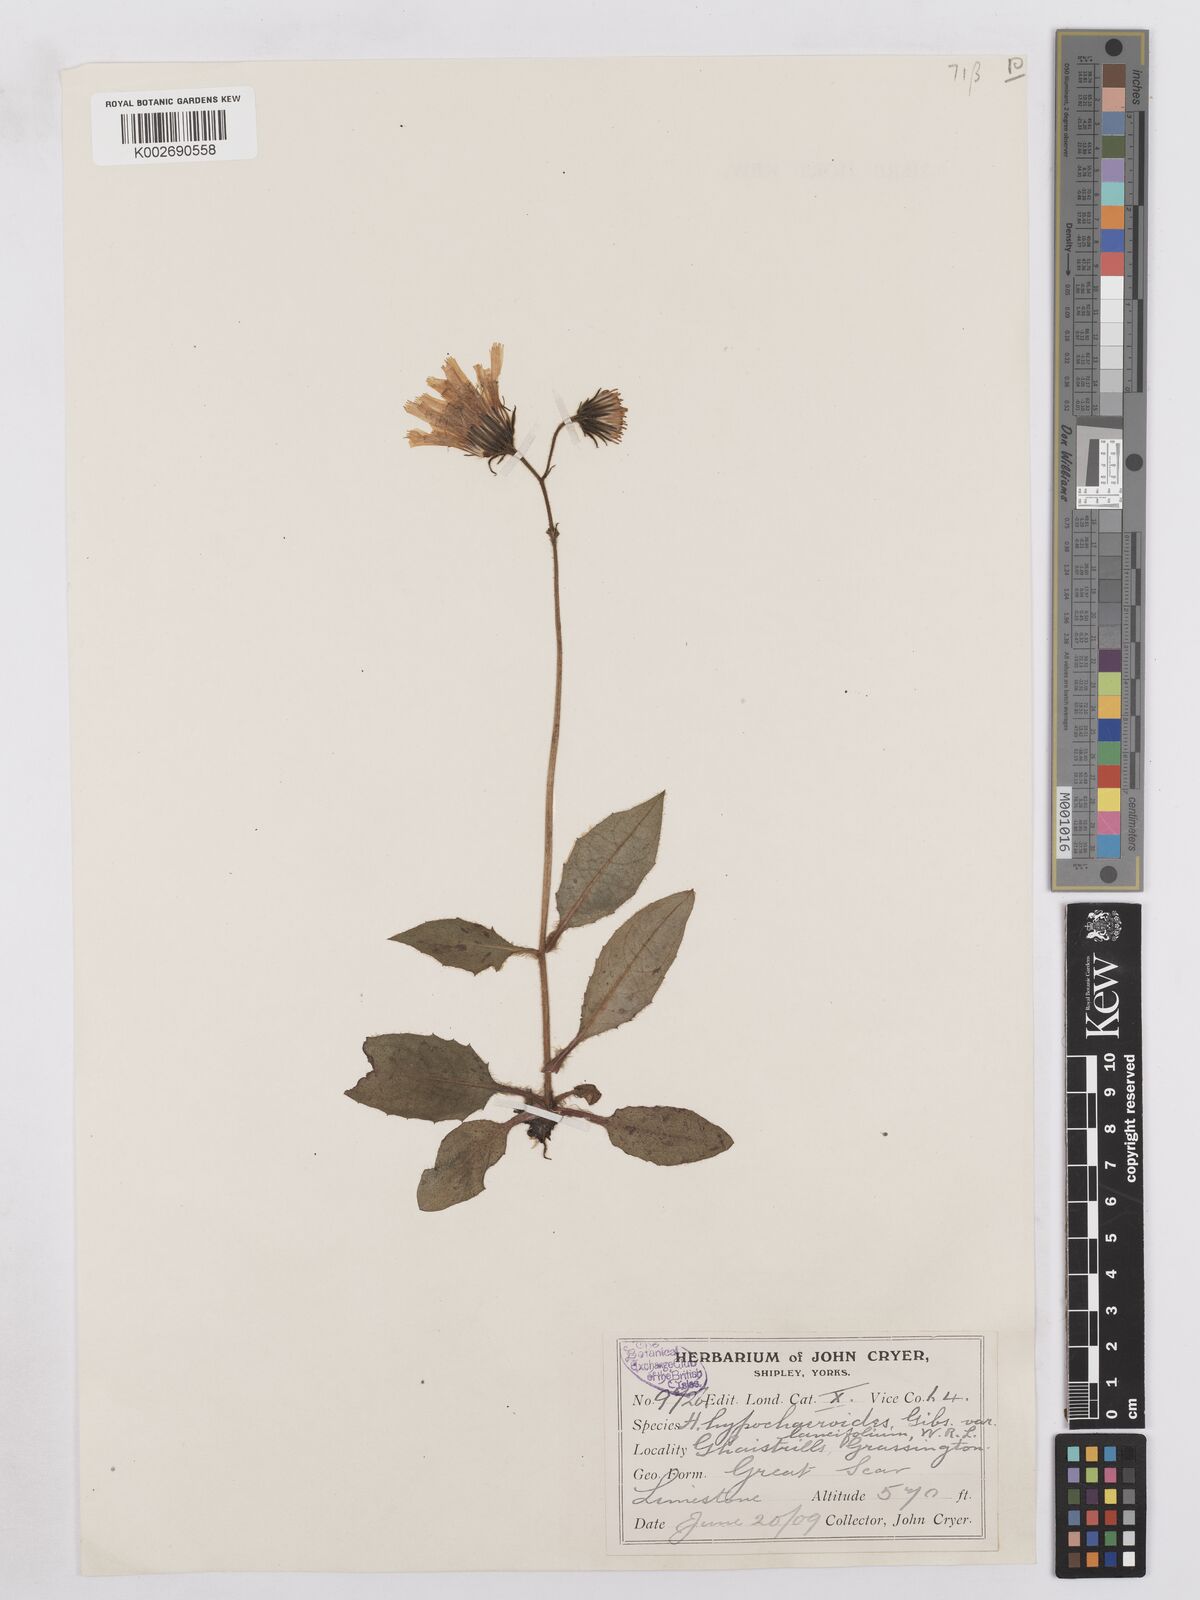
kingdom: Plantae
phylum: Tracheophyta
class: Magnoliopsida
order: Asterales
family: Asteraceae
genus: Hieracium
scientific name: Hieracium hypochoeroides
